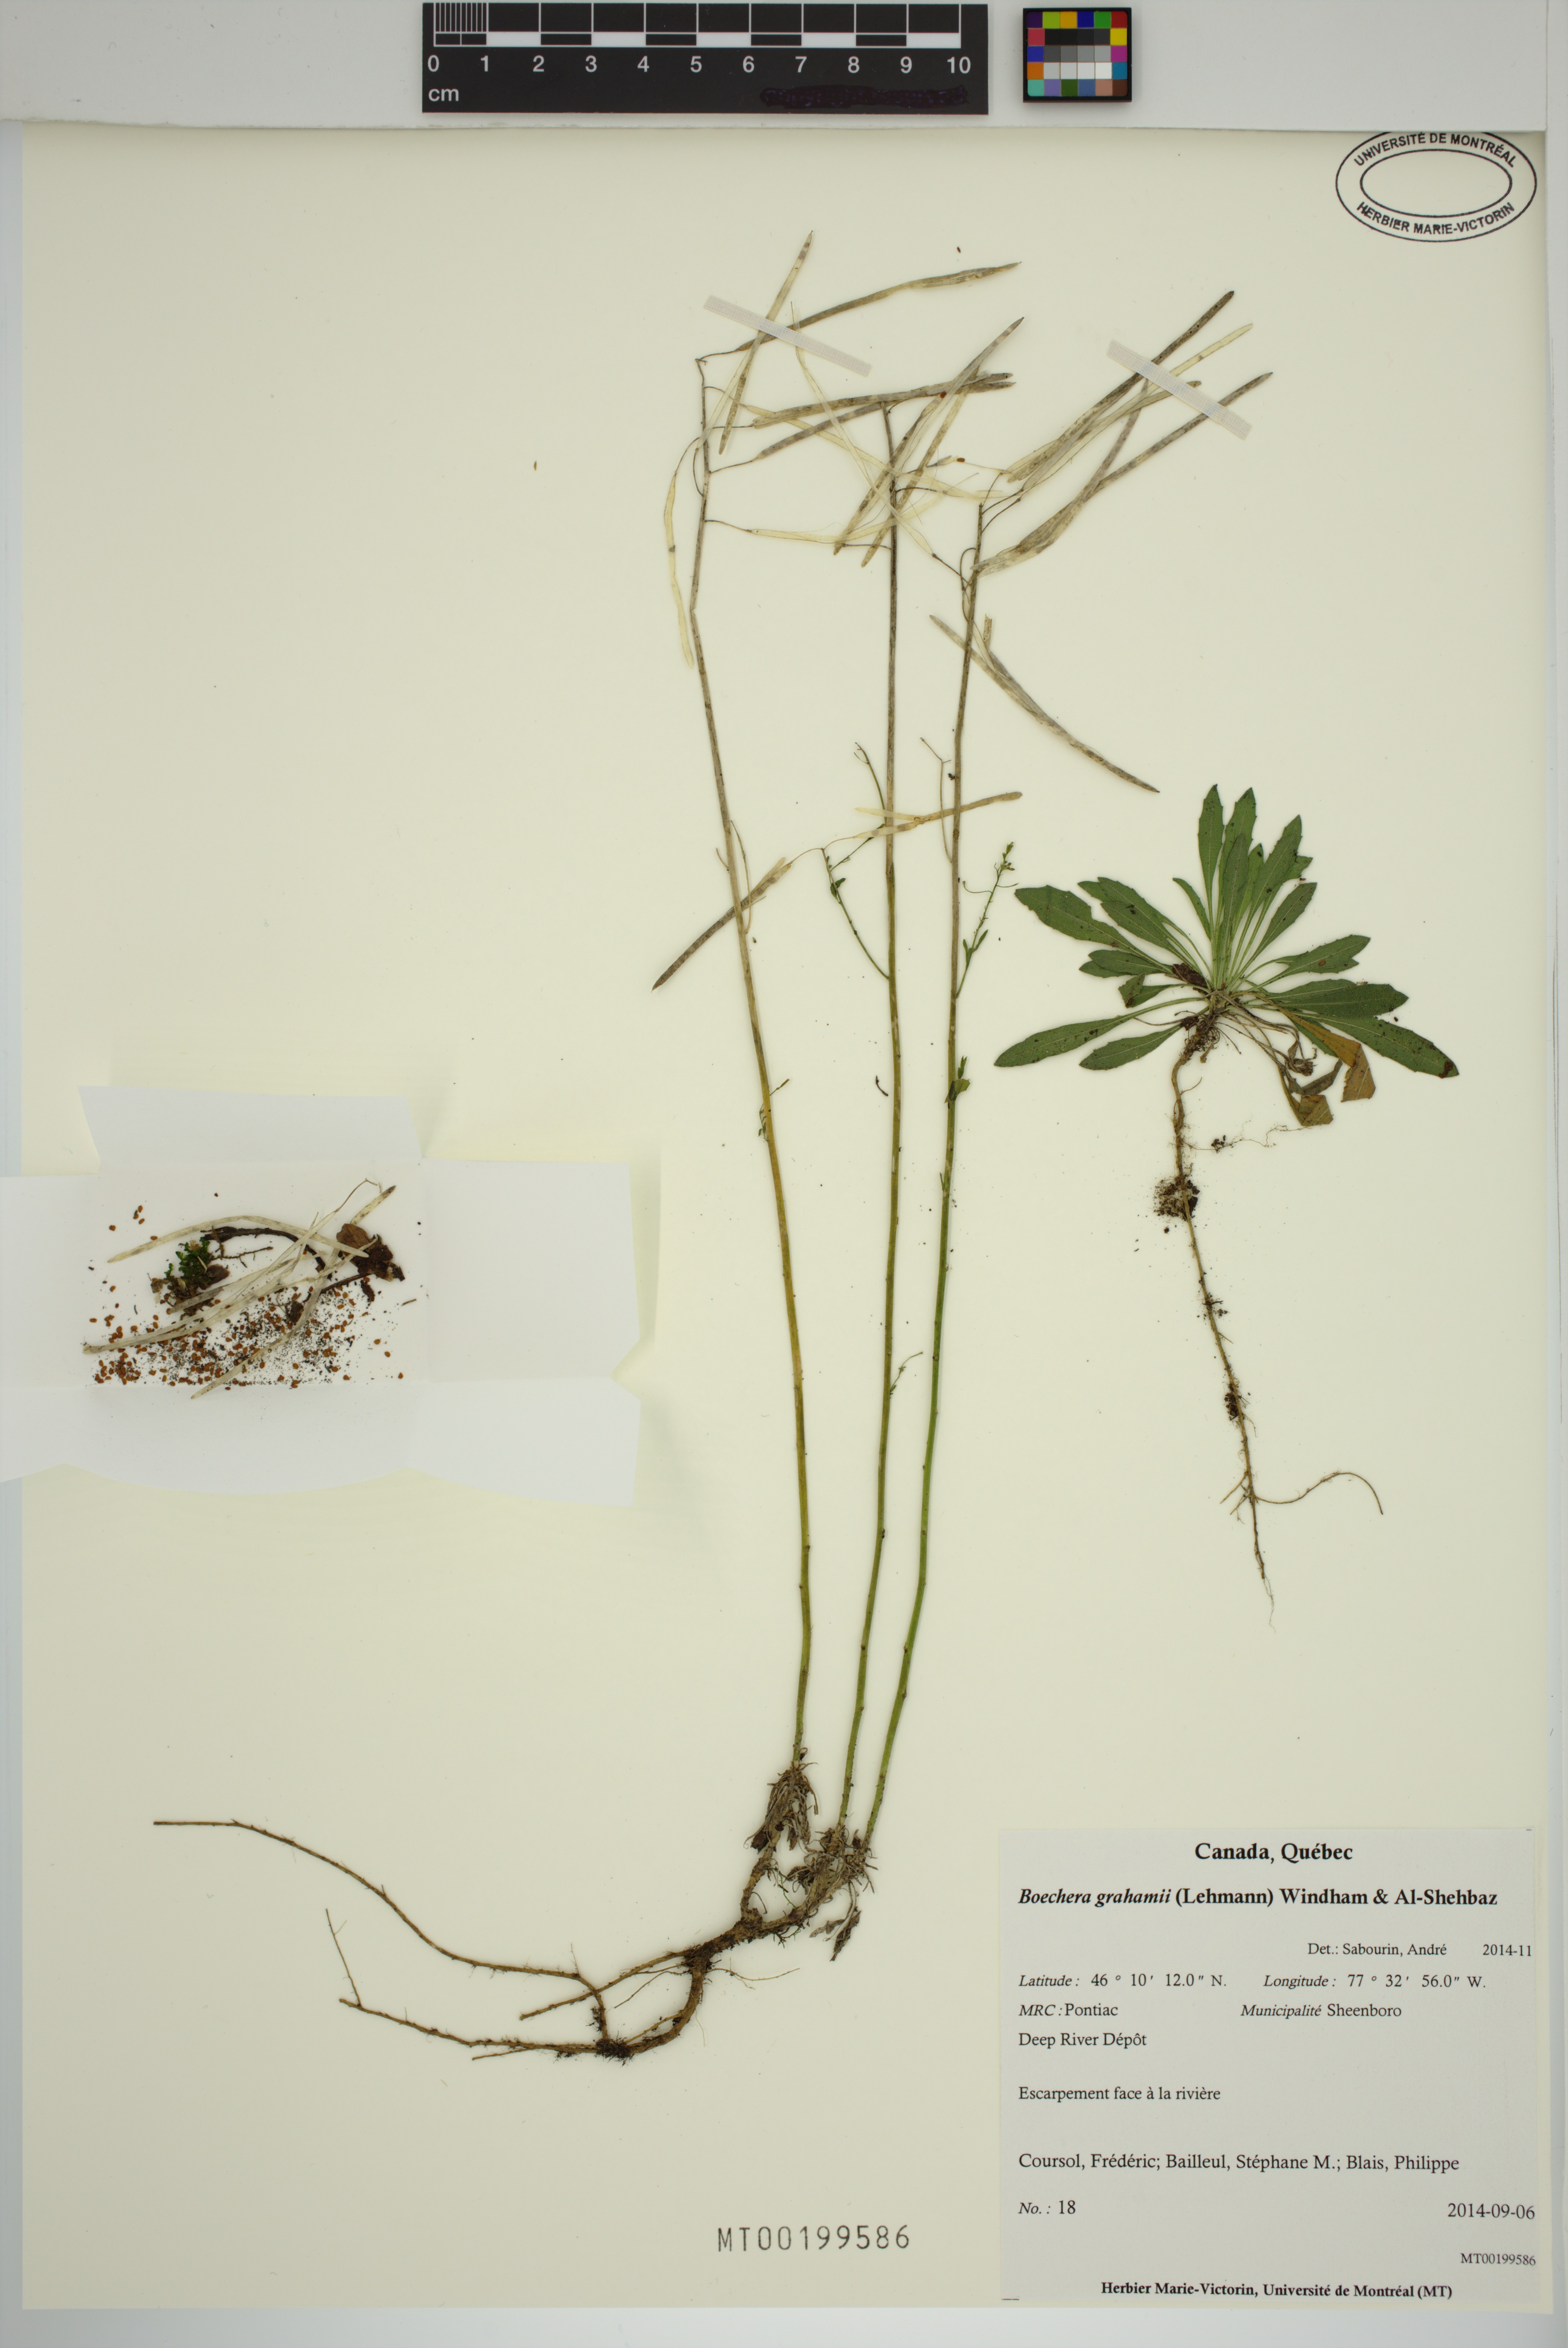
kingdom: Plantae
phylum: Tracheophyta
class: Magnoliopsida
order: Brassicales
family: Brassicaceae
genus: Boechera
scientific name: Boechera grahamii
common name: Graham's rockcress
